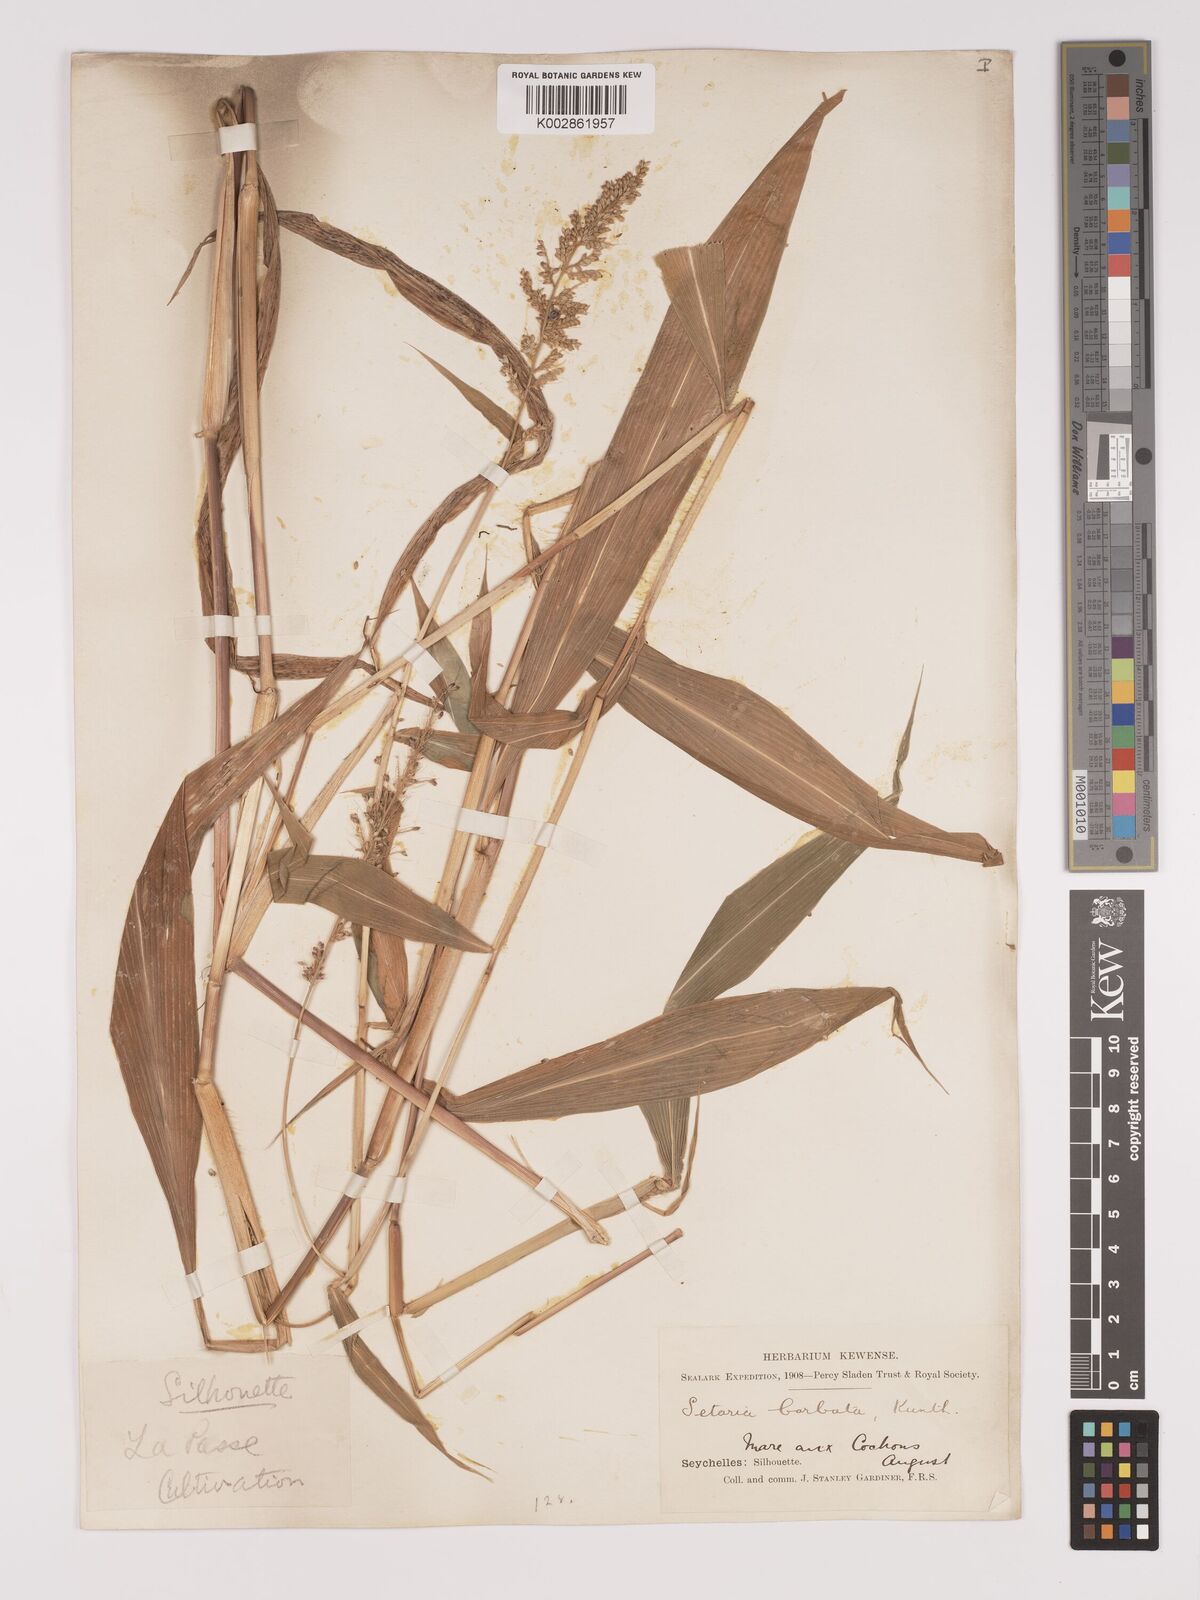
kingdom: Plantae
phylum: Tracheophyta
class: Liliopsida
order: Poales
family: Poaceae
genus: Setaria
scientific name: Setaria barbata
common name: East indian bristlegrass
